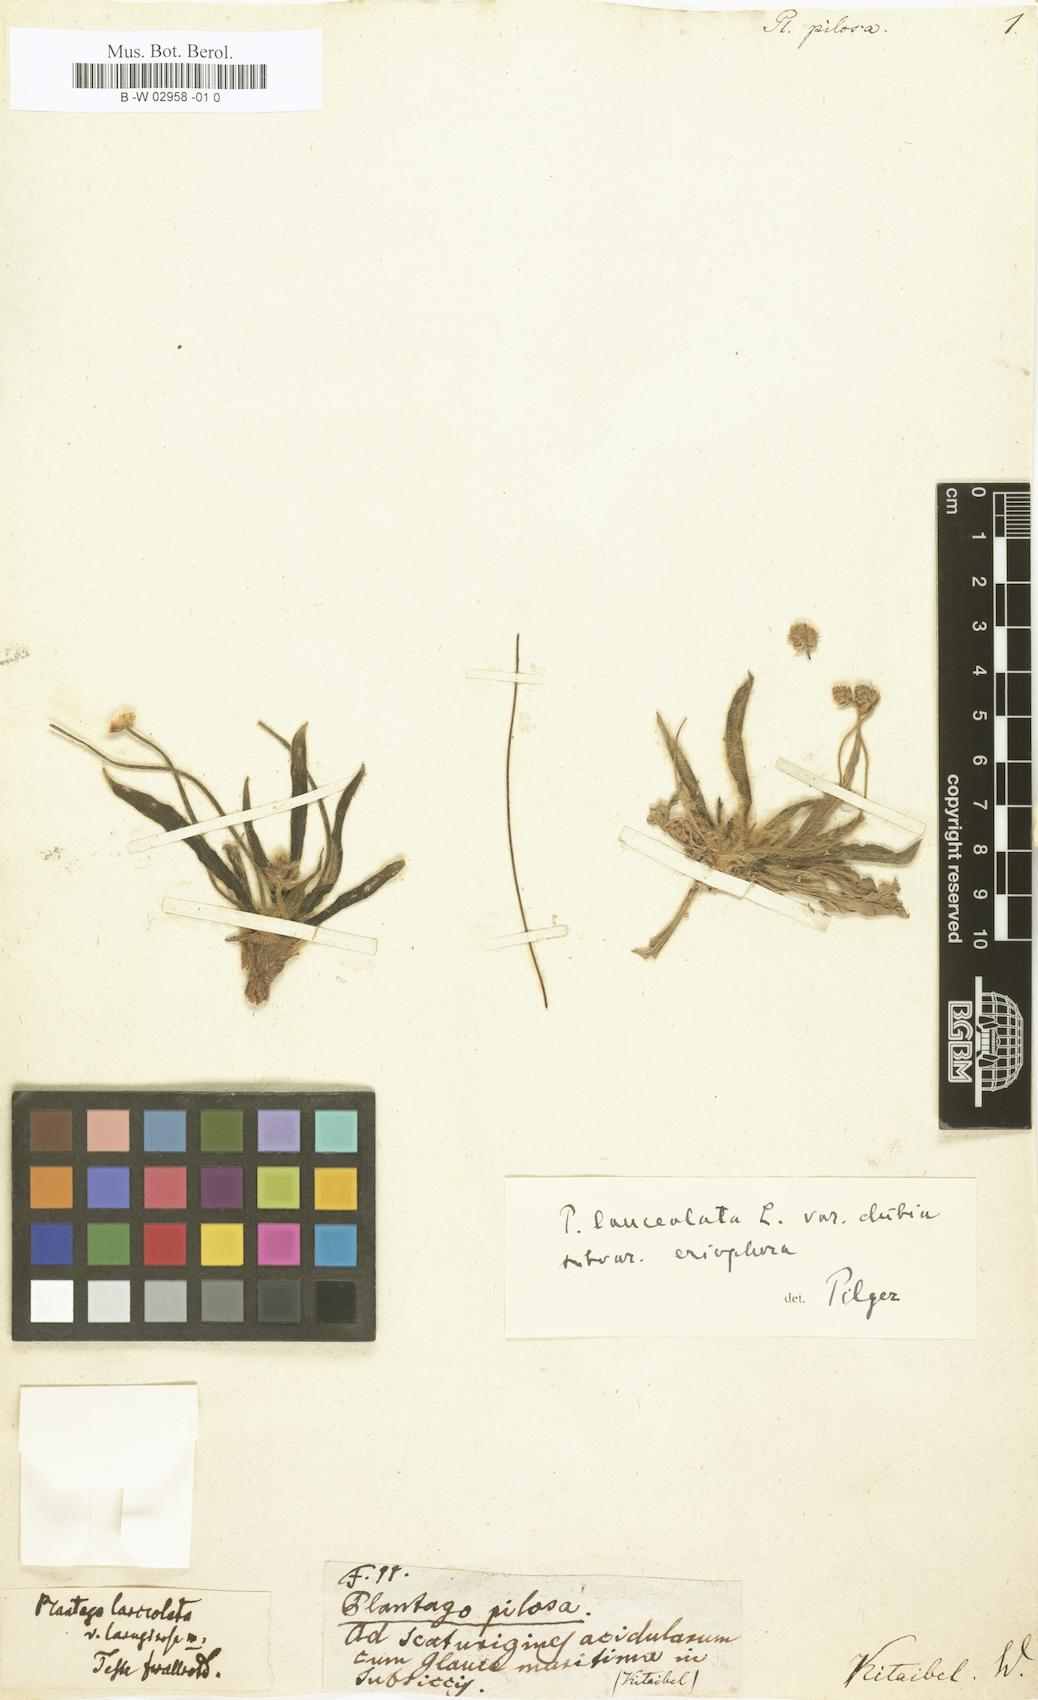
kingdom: Plantae
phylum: Tracheophyta
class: Magnoliopsida
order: Lamiales
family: Plantaginaceae
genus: Plantago
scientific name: Plantago
